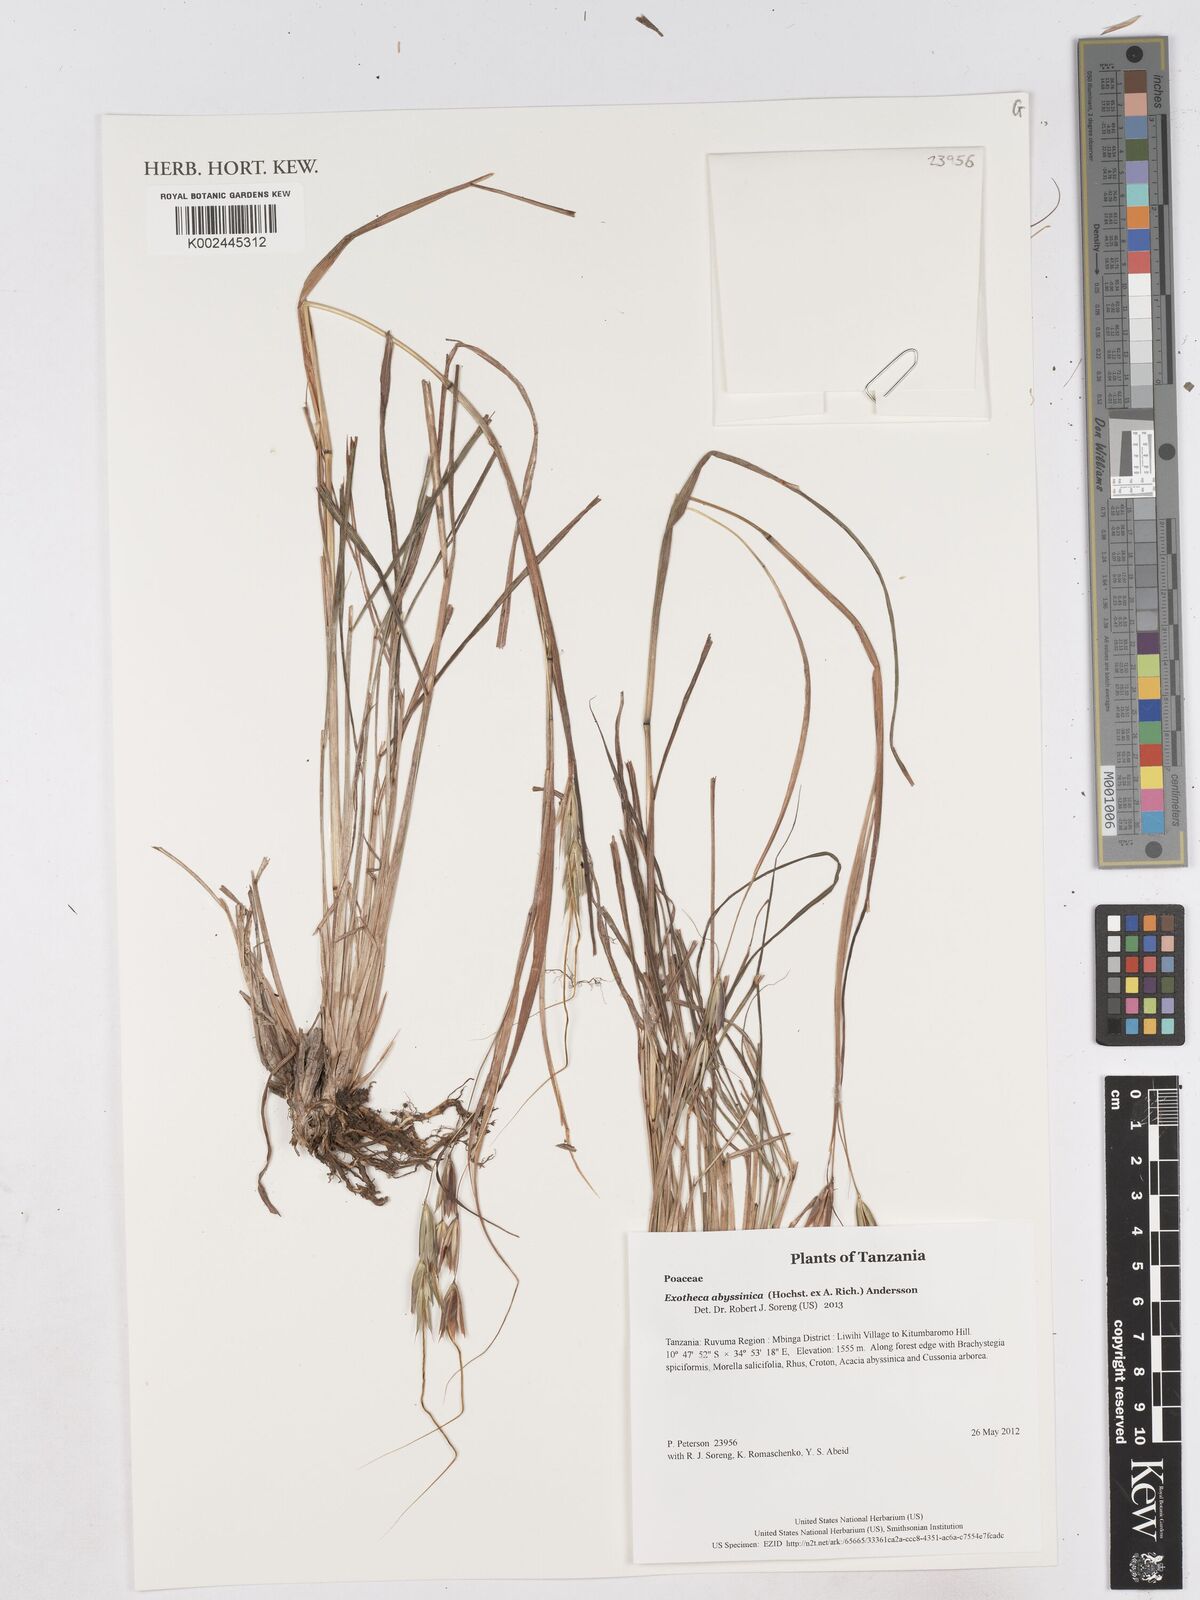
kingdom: Plantae
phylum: Tracheophyta
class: Liliopsida
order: Poales
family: Poaceae
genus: Exotheca
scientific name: Exotheca abyssinica
